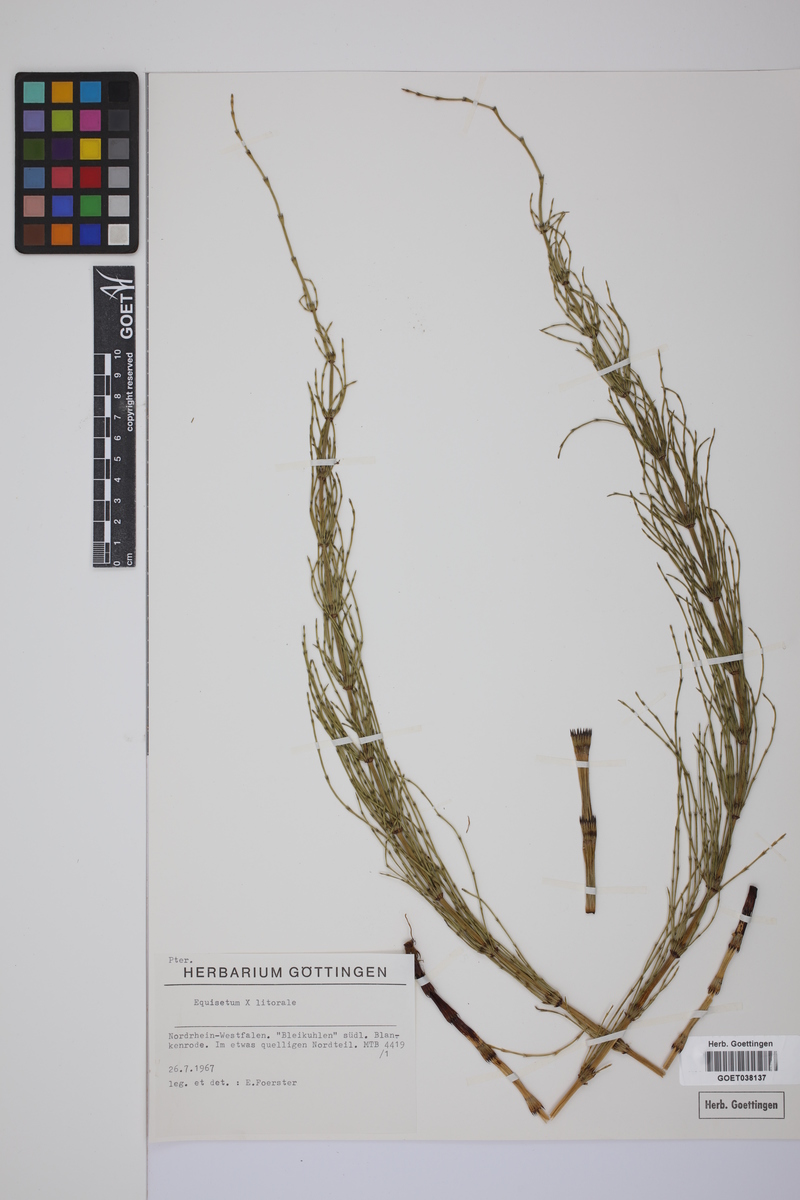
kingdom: Plantae
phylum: Tracheophyta
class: Polypodiopsida
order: Equisetales
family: Equisetaceae
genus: Equisetum
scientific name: Equisetum litorale
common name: Littoral horsetail
